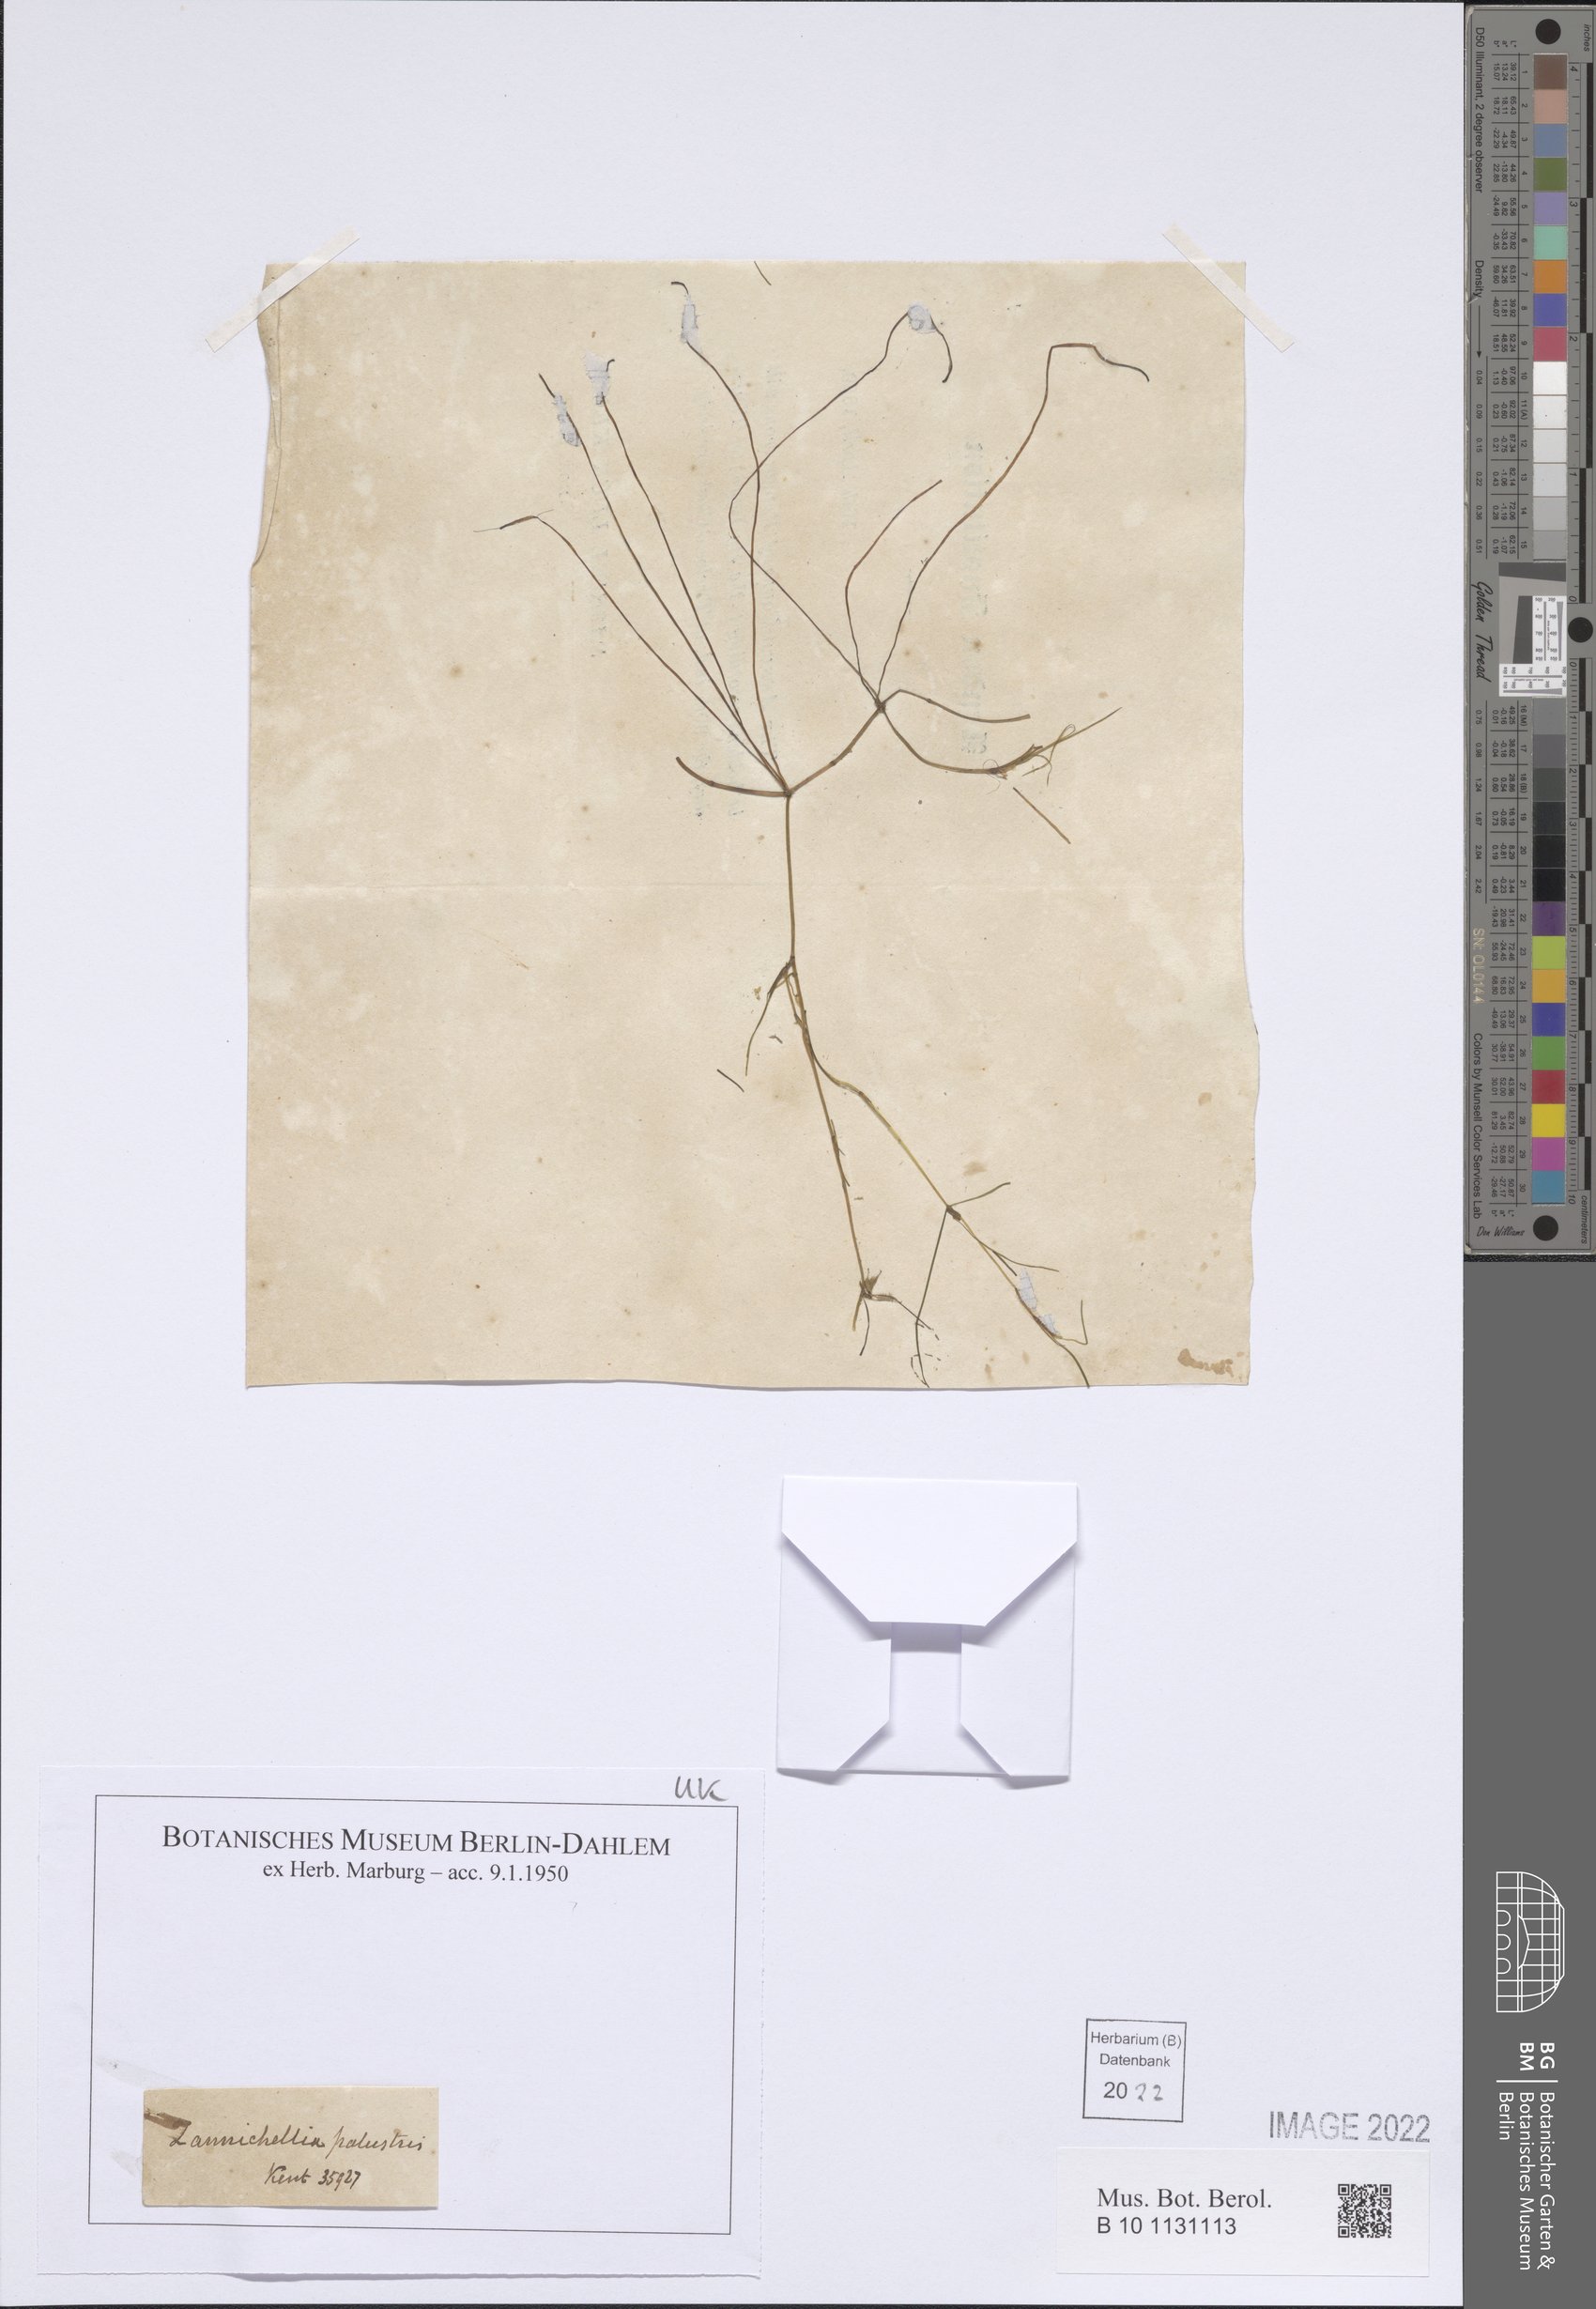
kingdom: Plantae
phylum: Tracheophyta
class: Liliopsida
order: Alismatales
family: Potamogetonaceae
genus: Zannichellia
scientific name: Zannichellia palustris
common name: Horned pondweed
